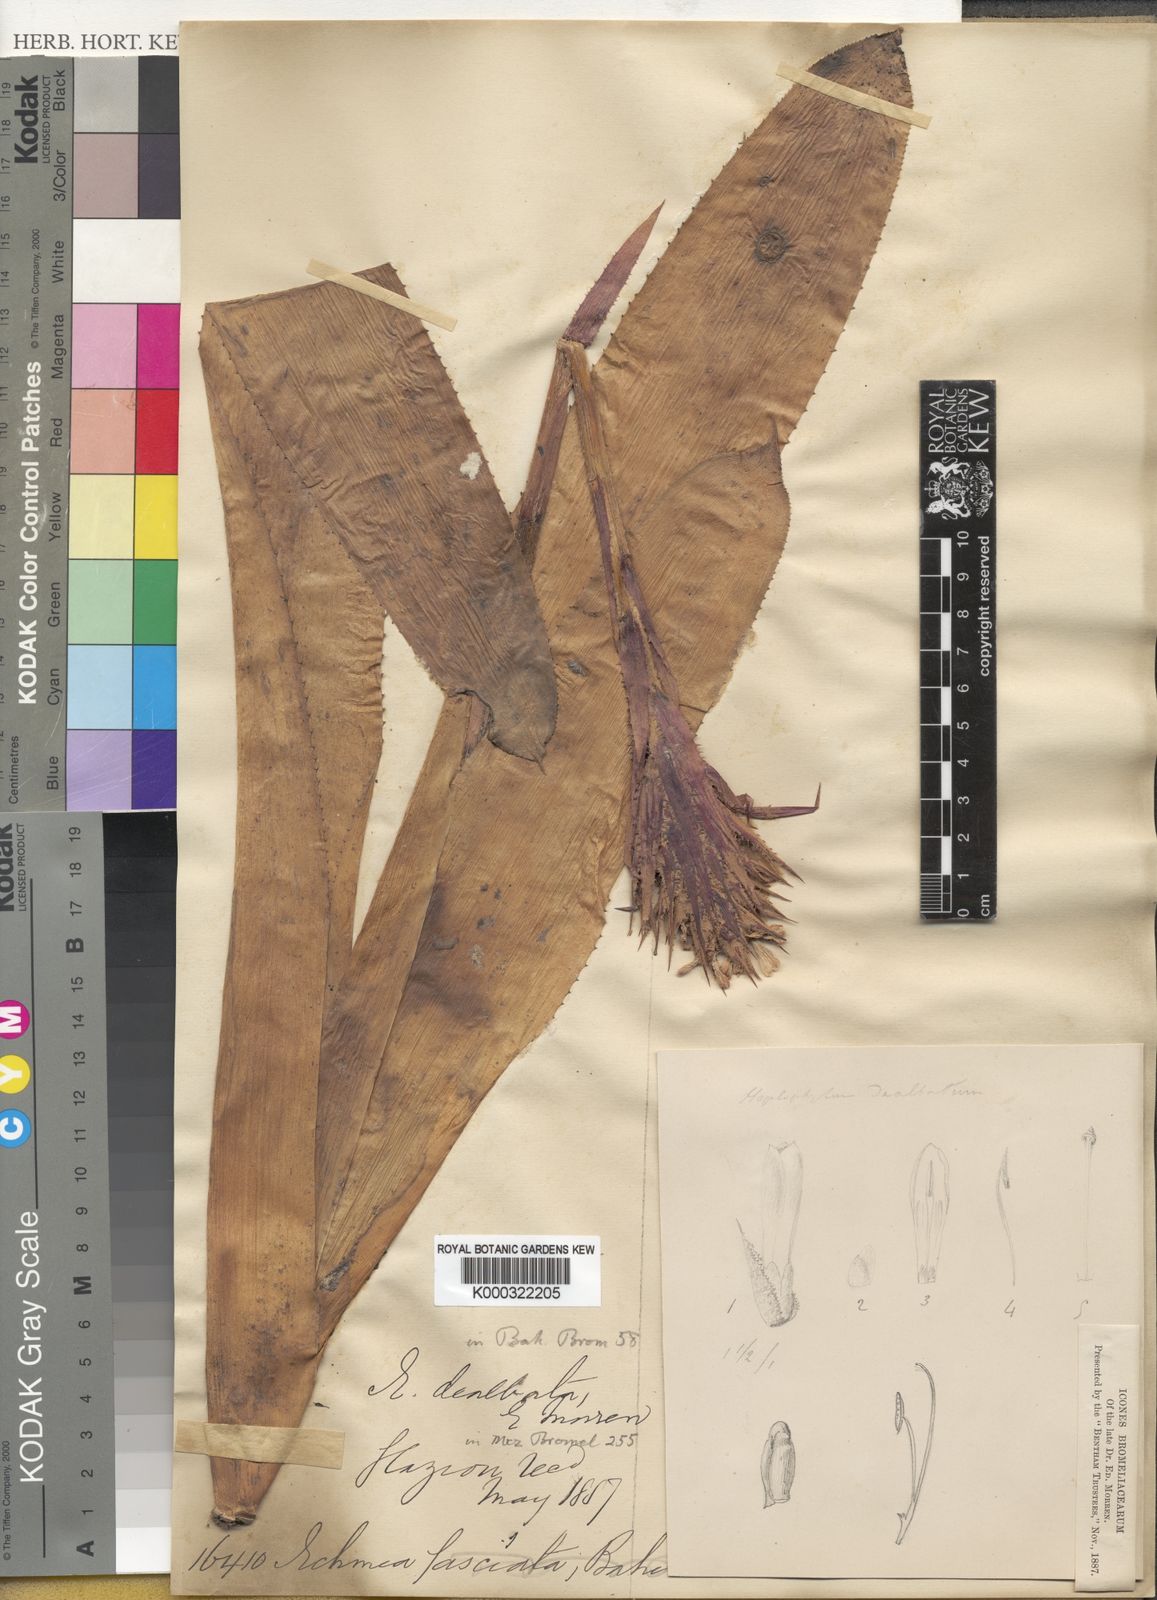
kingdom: Plantae
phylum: Tracheophyta
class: Liliopsida
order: Poales
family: Bromeliaceae
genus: Aechmea
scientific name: Aechmea dealbata
